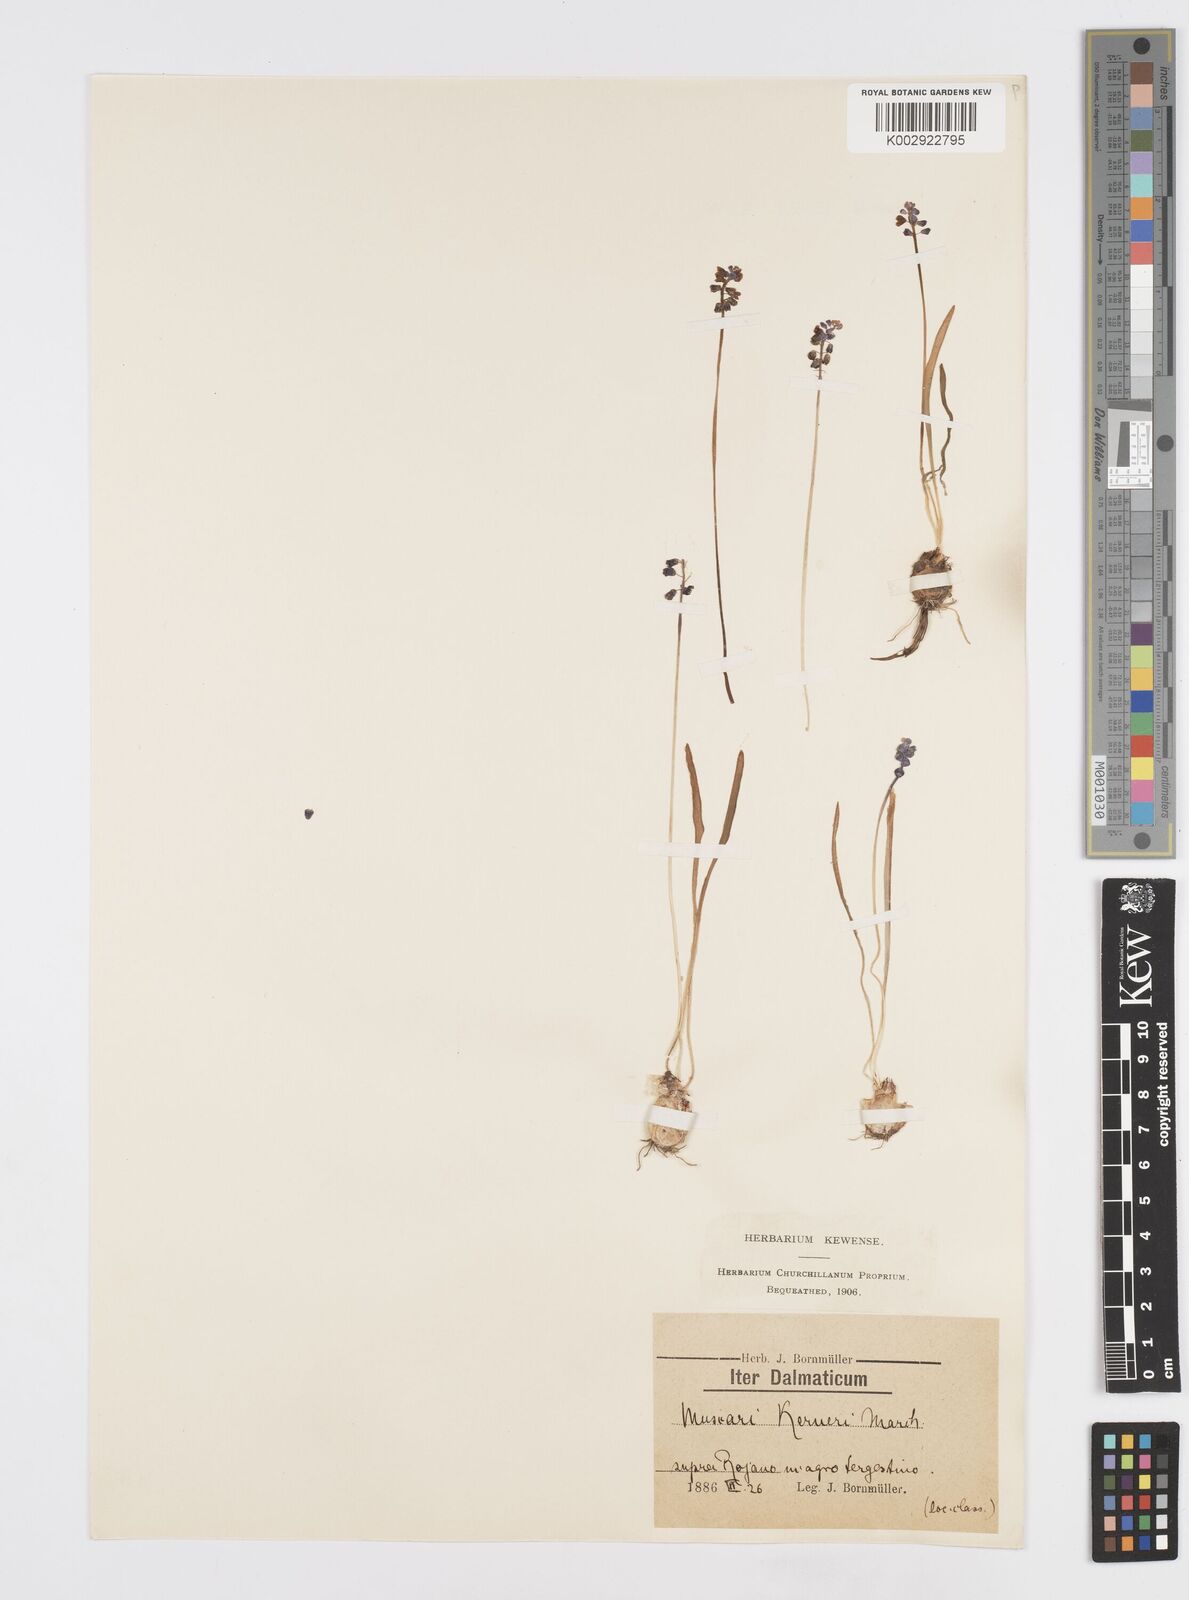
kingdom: Plantae
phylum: Tracheophyta
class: Liliopsida
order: Asparagales
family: Asparagaceae
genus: Muscari
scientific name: Muscari
